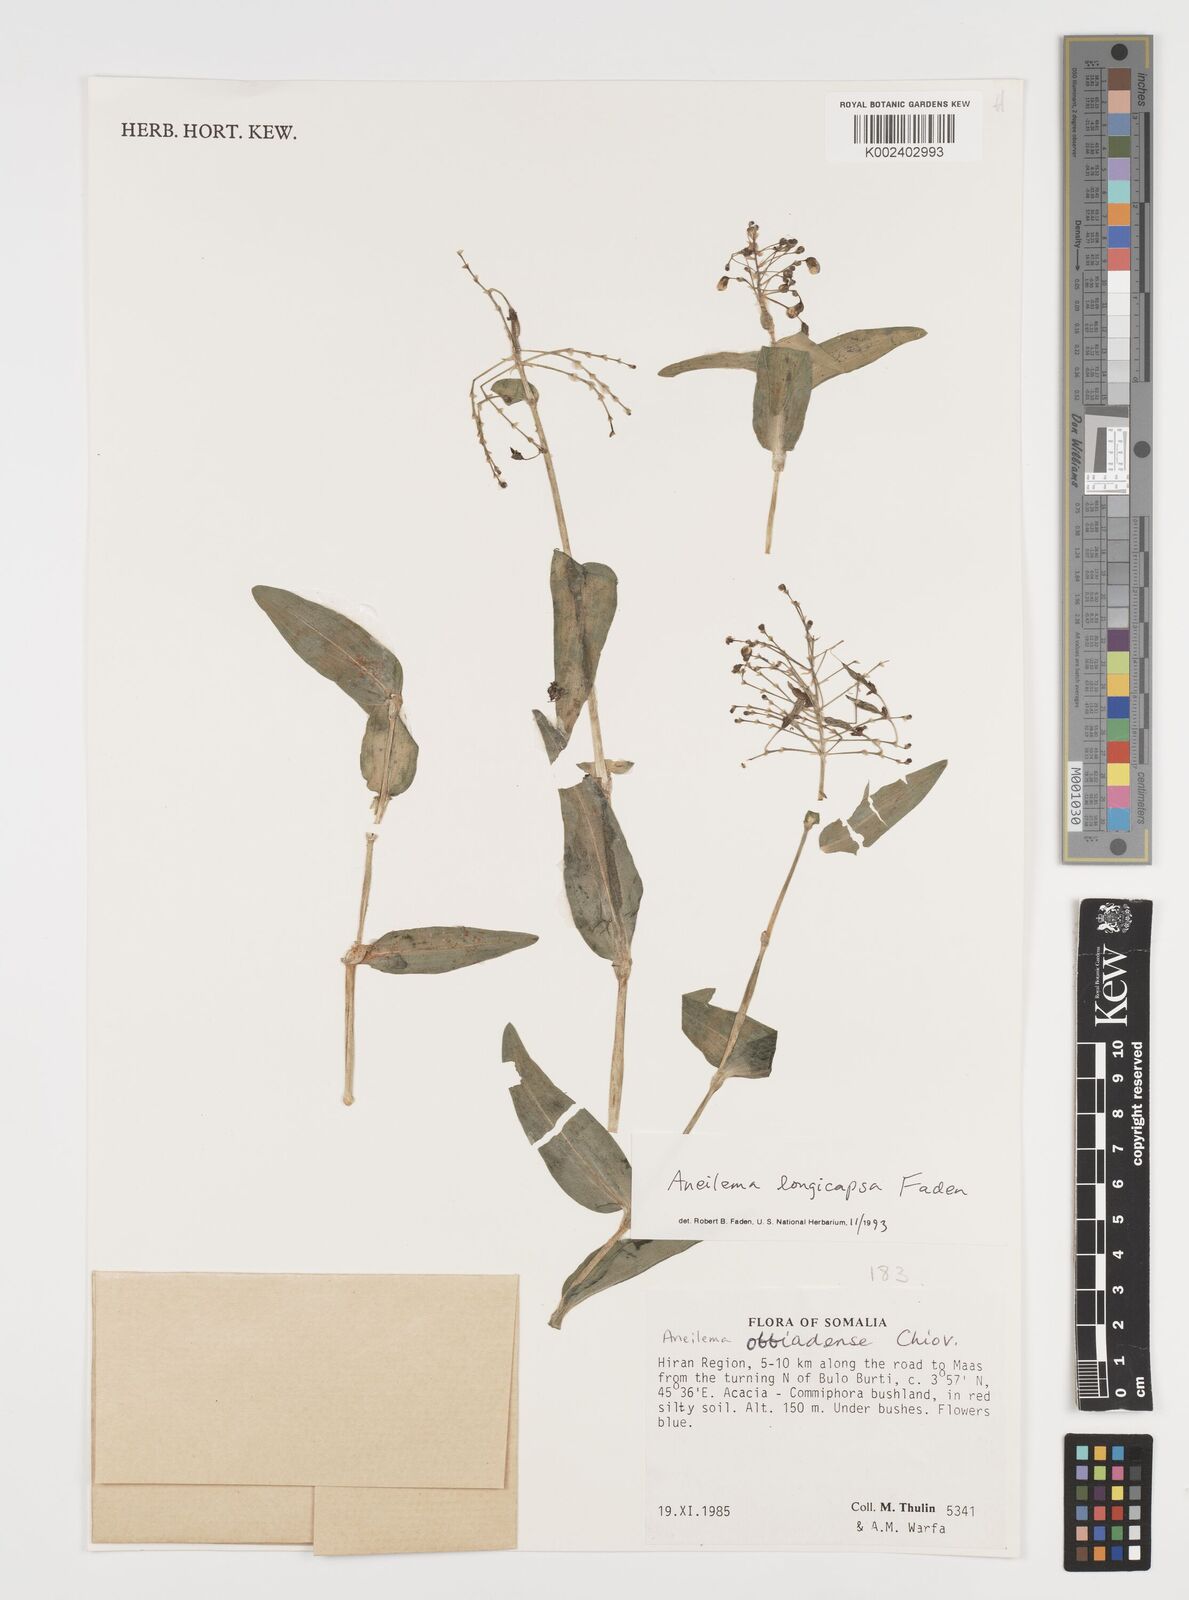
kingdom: Plantae
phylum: Tracheophyta
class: Liliopsida
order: Commelinales
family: Commelinaceae
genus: Aneilema
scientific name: Aneilema longicapsa
